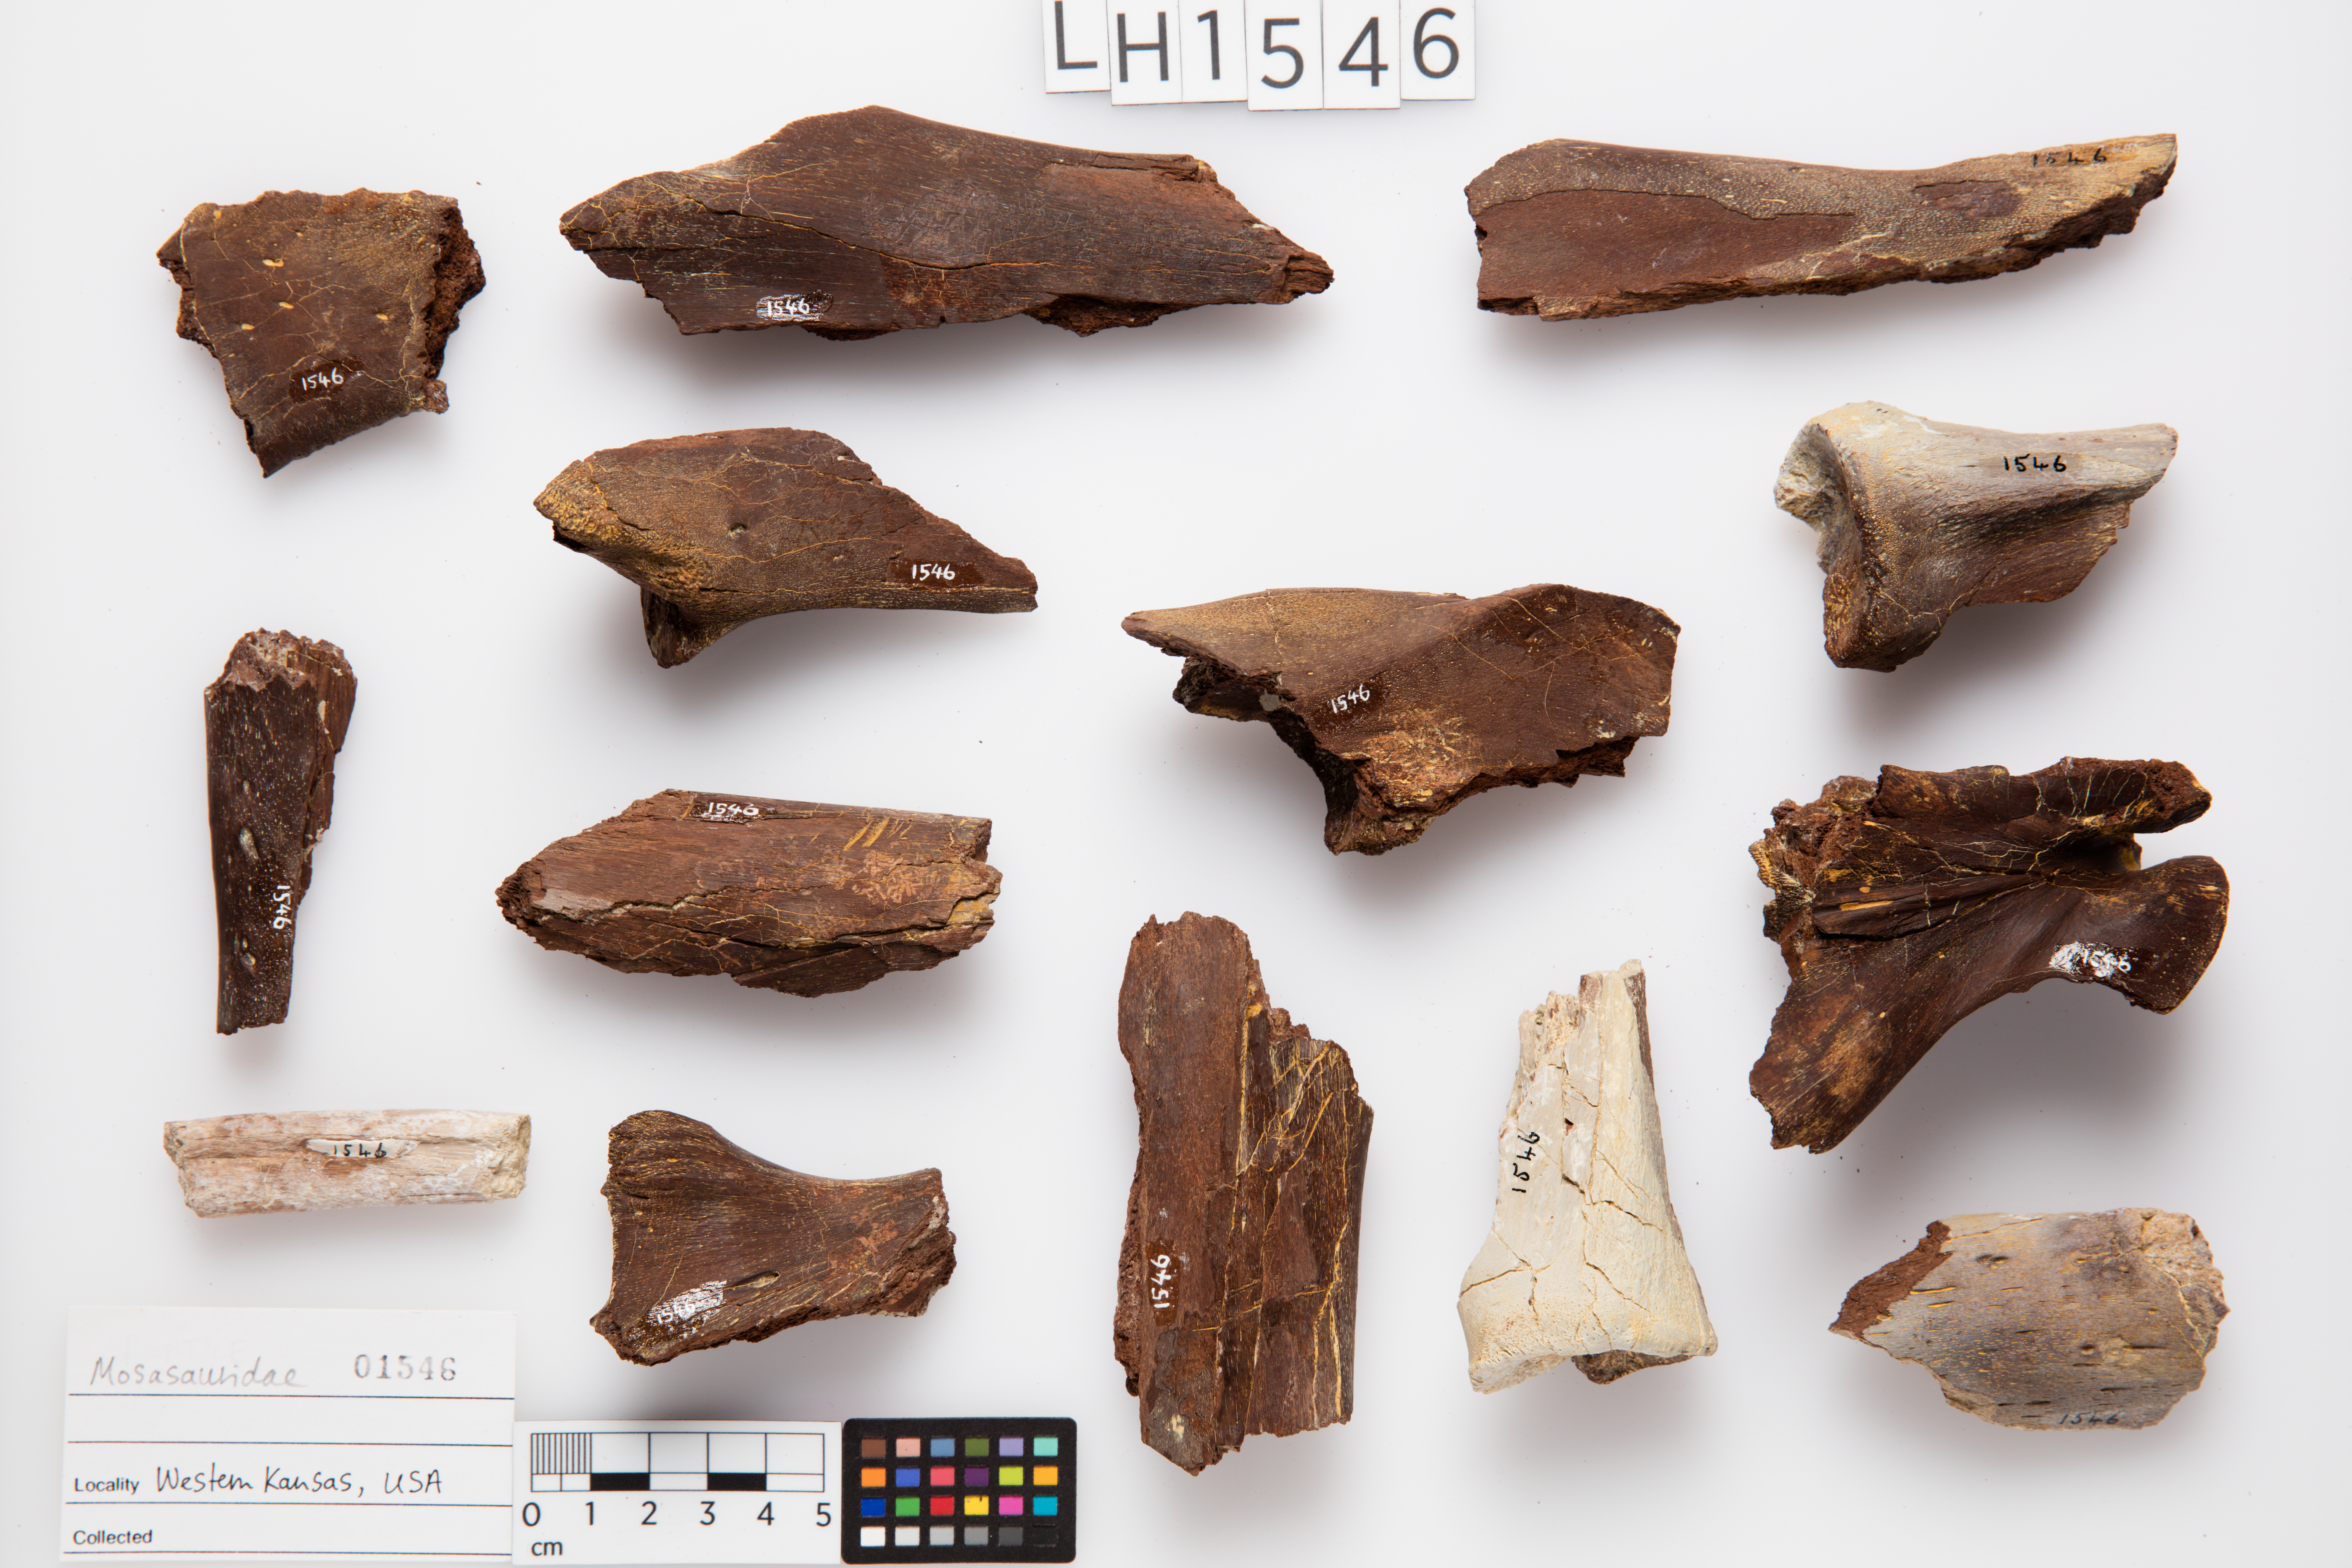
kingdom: Animalia
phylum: Chordata
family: Mosasauridae
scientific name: Mosasauridae
